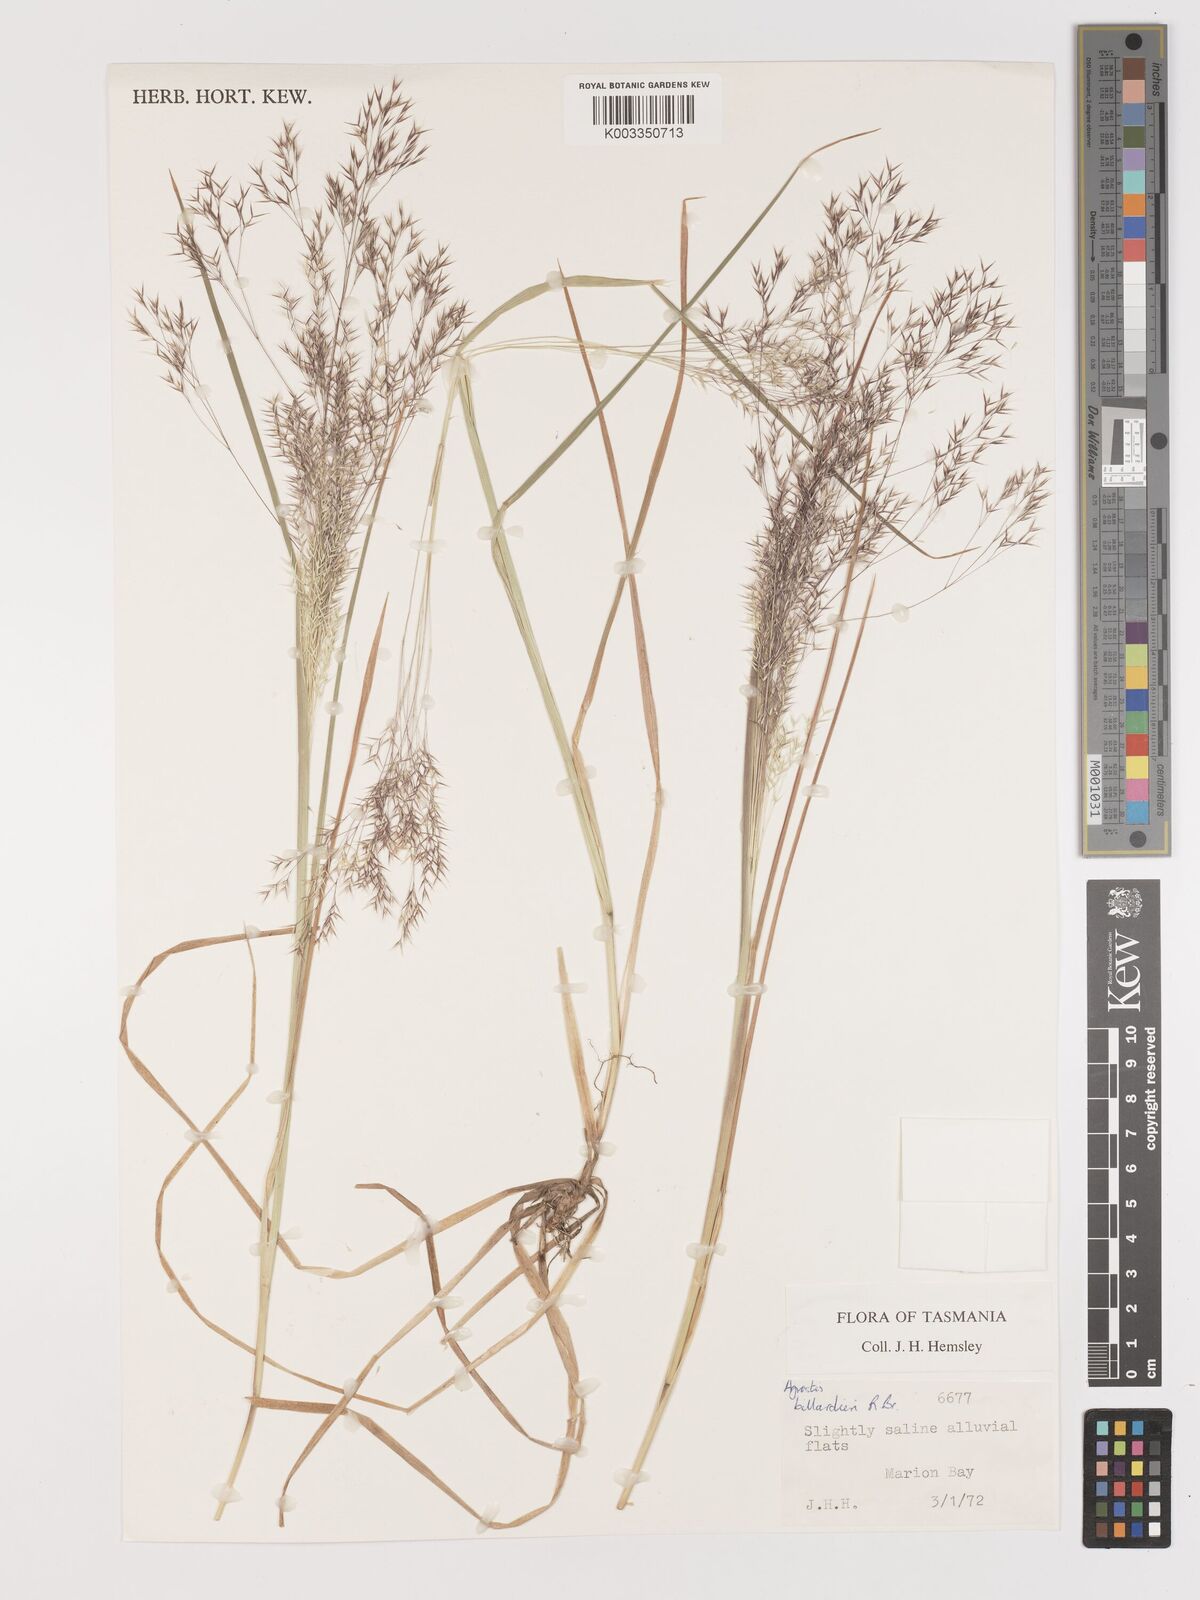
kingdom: Plantae
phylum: Tracheophyta
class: Liliopsida
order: Poales
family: Poaceae
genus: Lachnagrostis
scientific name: Lachnagrostis billardierei
